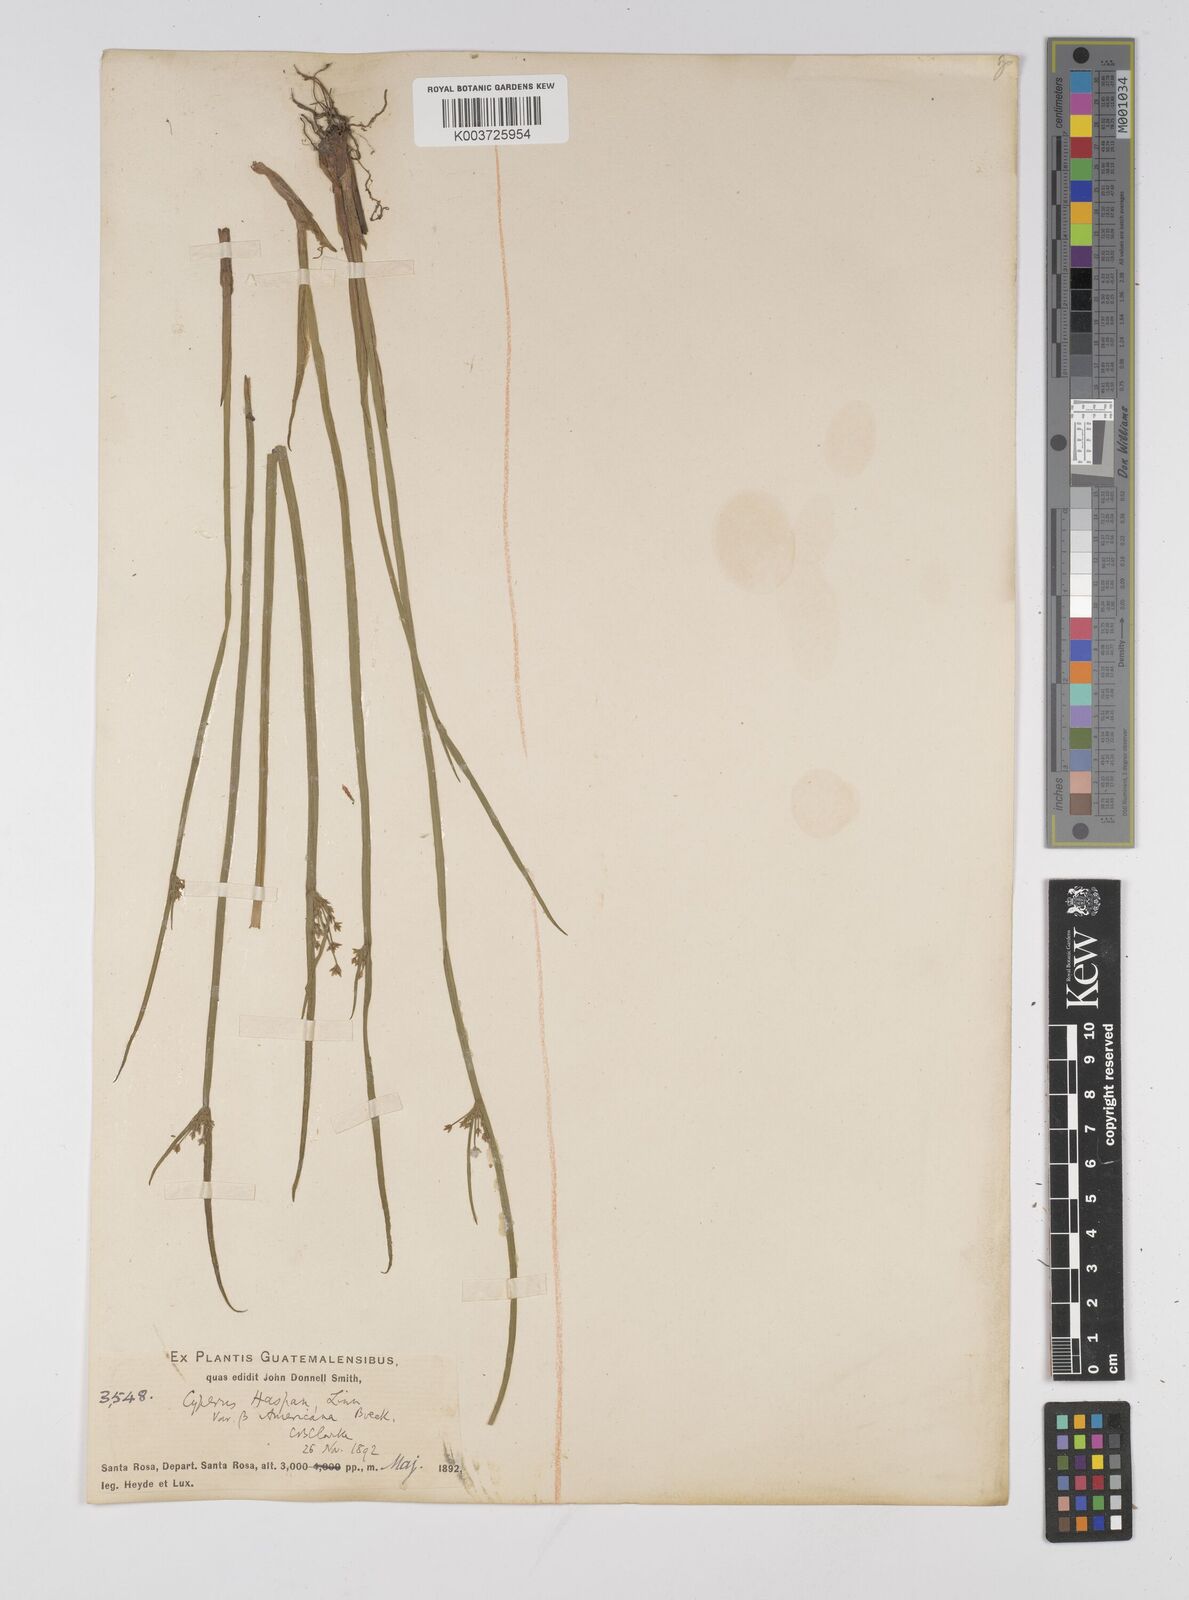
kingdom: Plantae
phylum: Tracheophyta
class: Liliopsida
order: Poales
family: Cyperaceae
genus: Cyperus
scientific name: Cyperus haspan
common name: Haspan flatsedge
